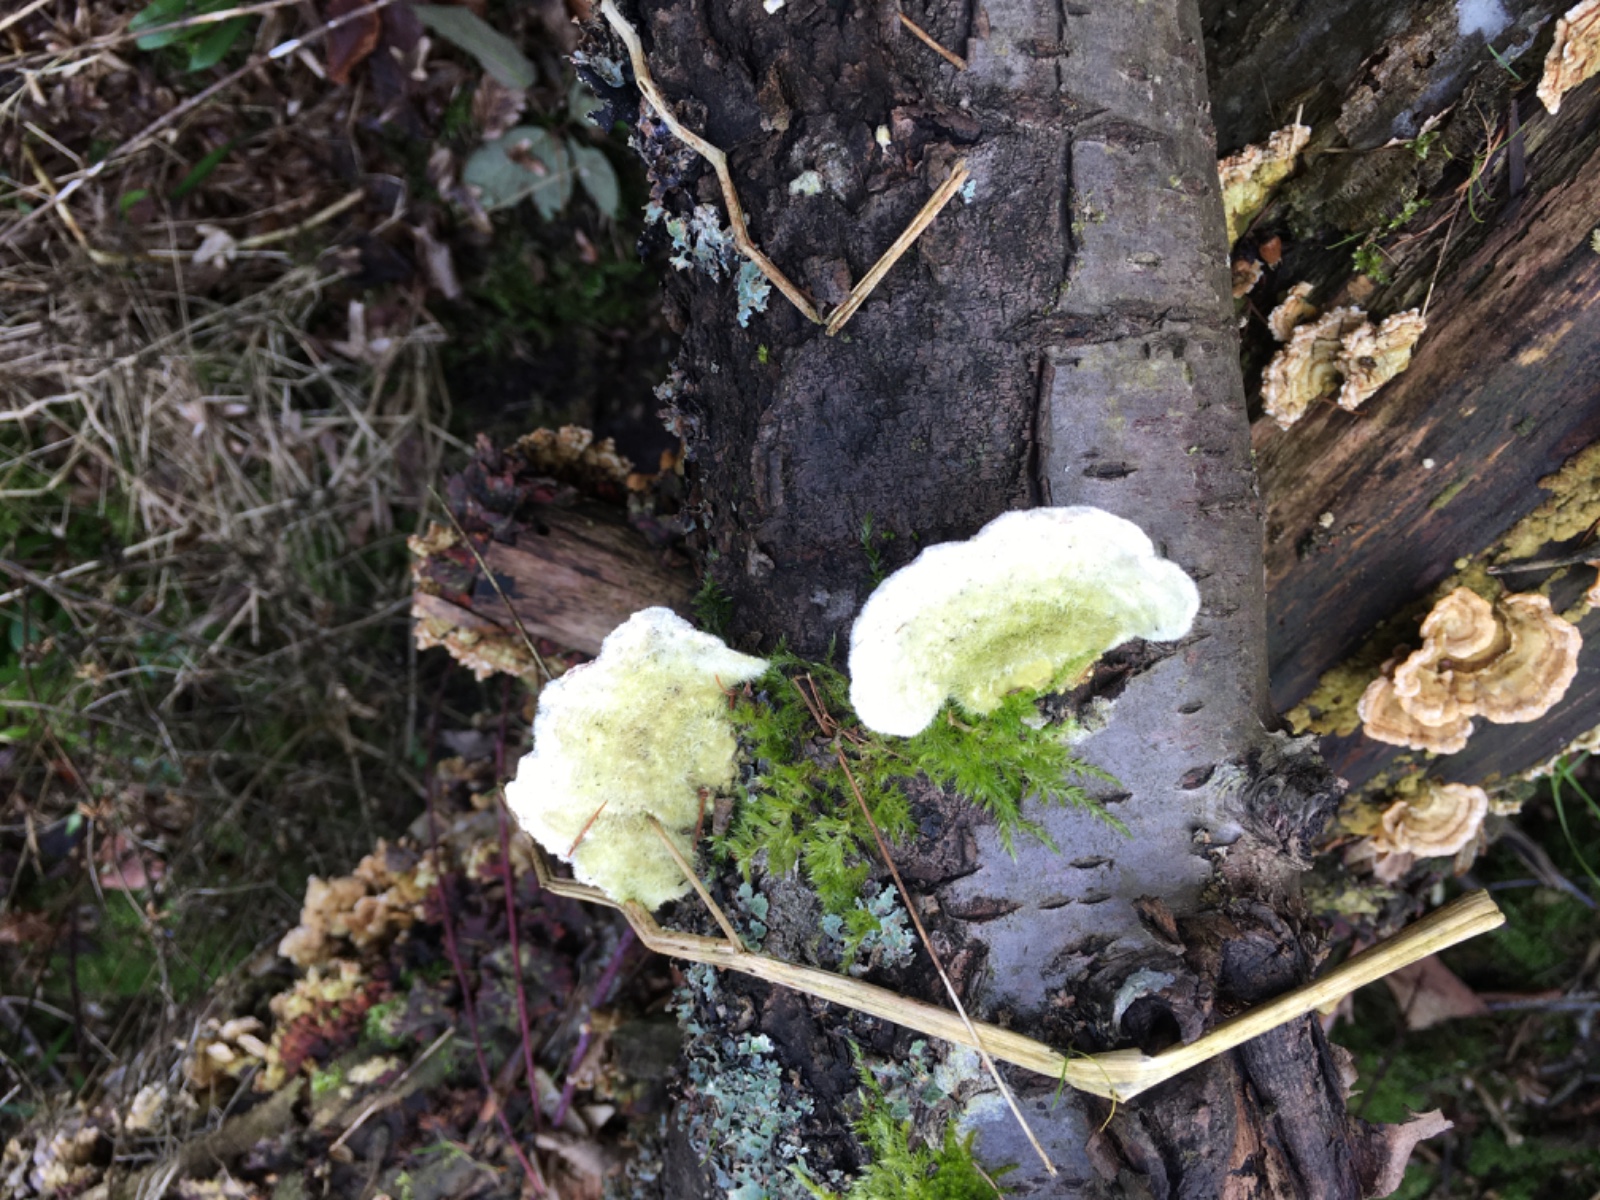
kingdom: Fungi
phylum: Basidiomycota
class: Agaricomycetes
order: Polyporales
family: Polyporaceae
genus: Trametes
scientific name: Trametes gibbosa
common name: puklet læderporesvamp
